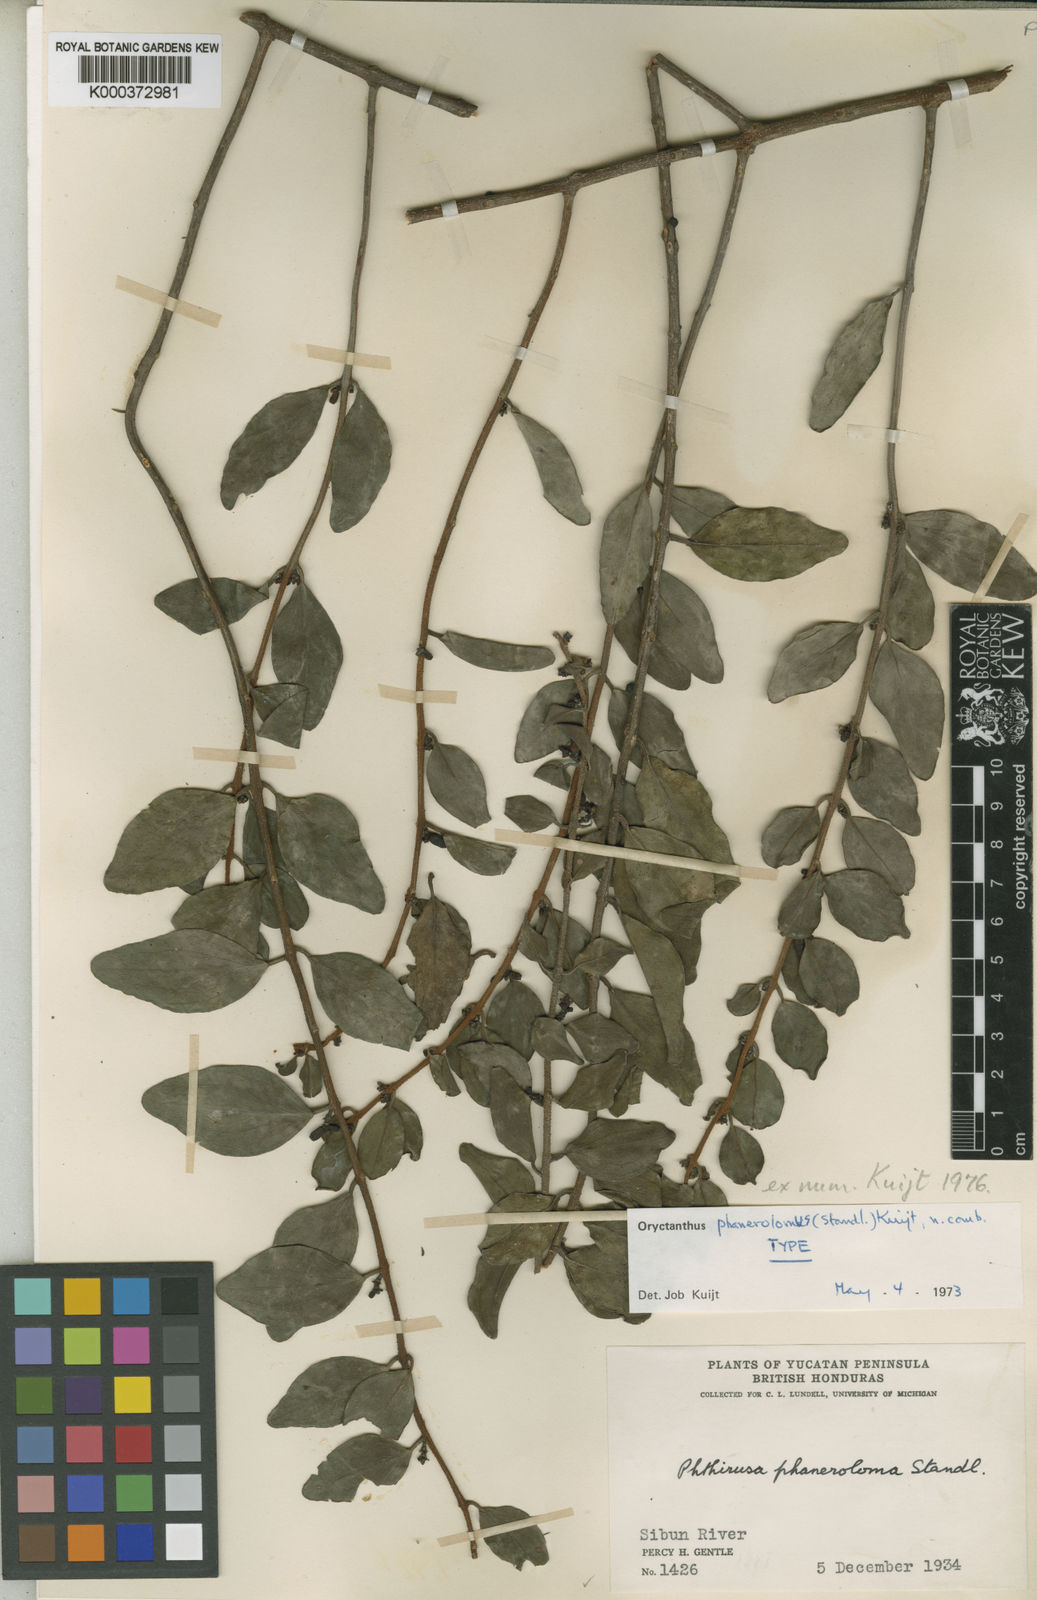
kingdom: Plantae
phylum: Tracheophyta
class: Magnoliopsida
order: Santalales
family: Loranthaceae
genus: Oryctanthus
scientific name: Oryctanthus spicatus
